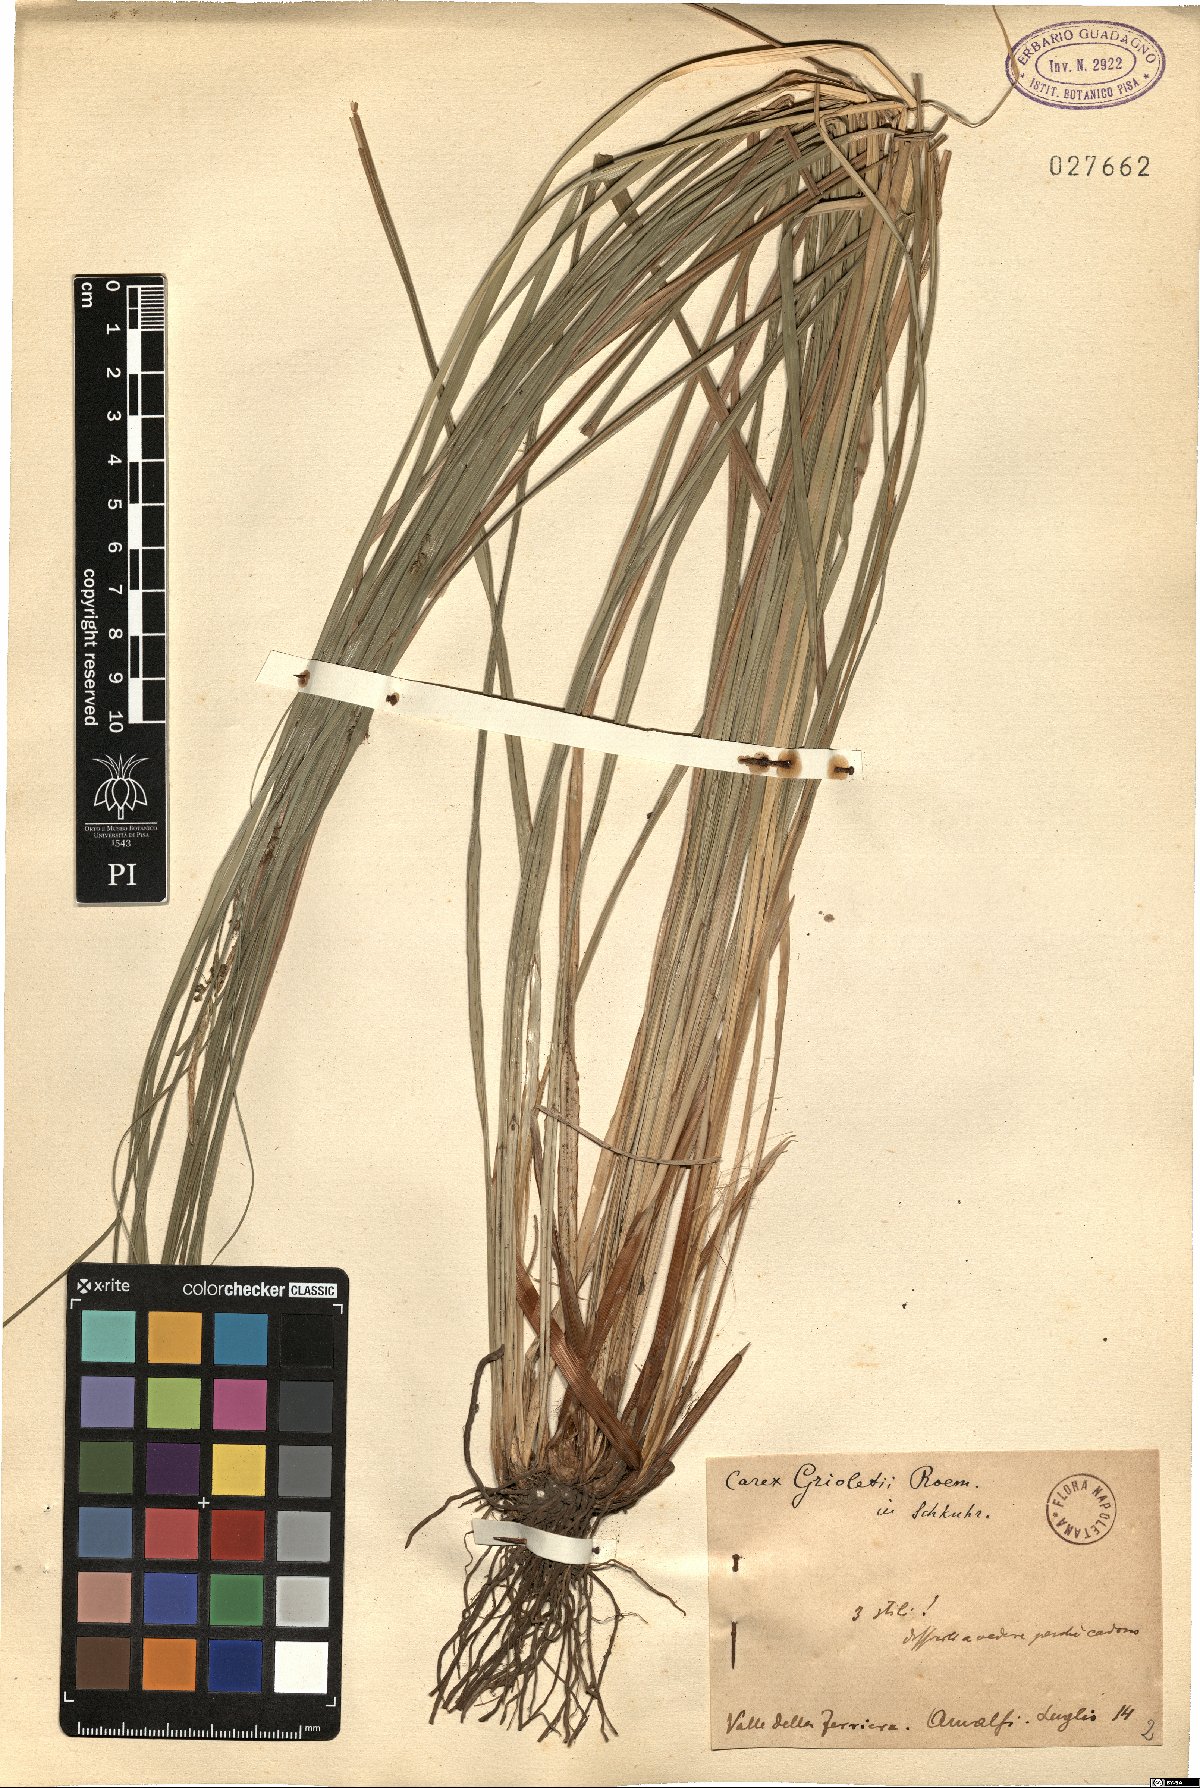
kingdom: Plantae
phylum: Tracheophyta
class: Liliopsida
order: Poales
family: Cyperaceae
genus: Carex
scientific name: Carex grioletii
